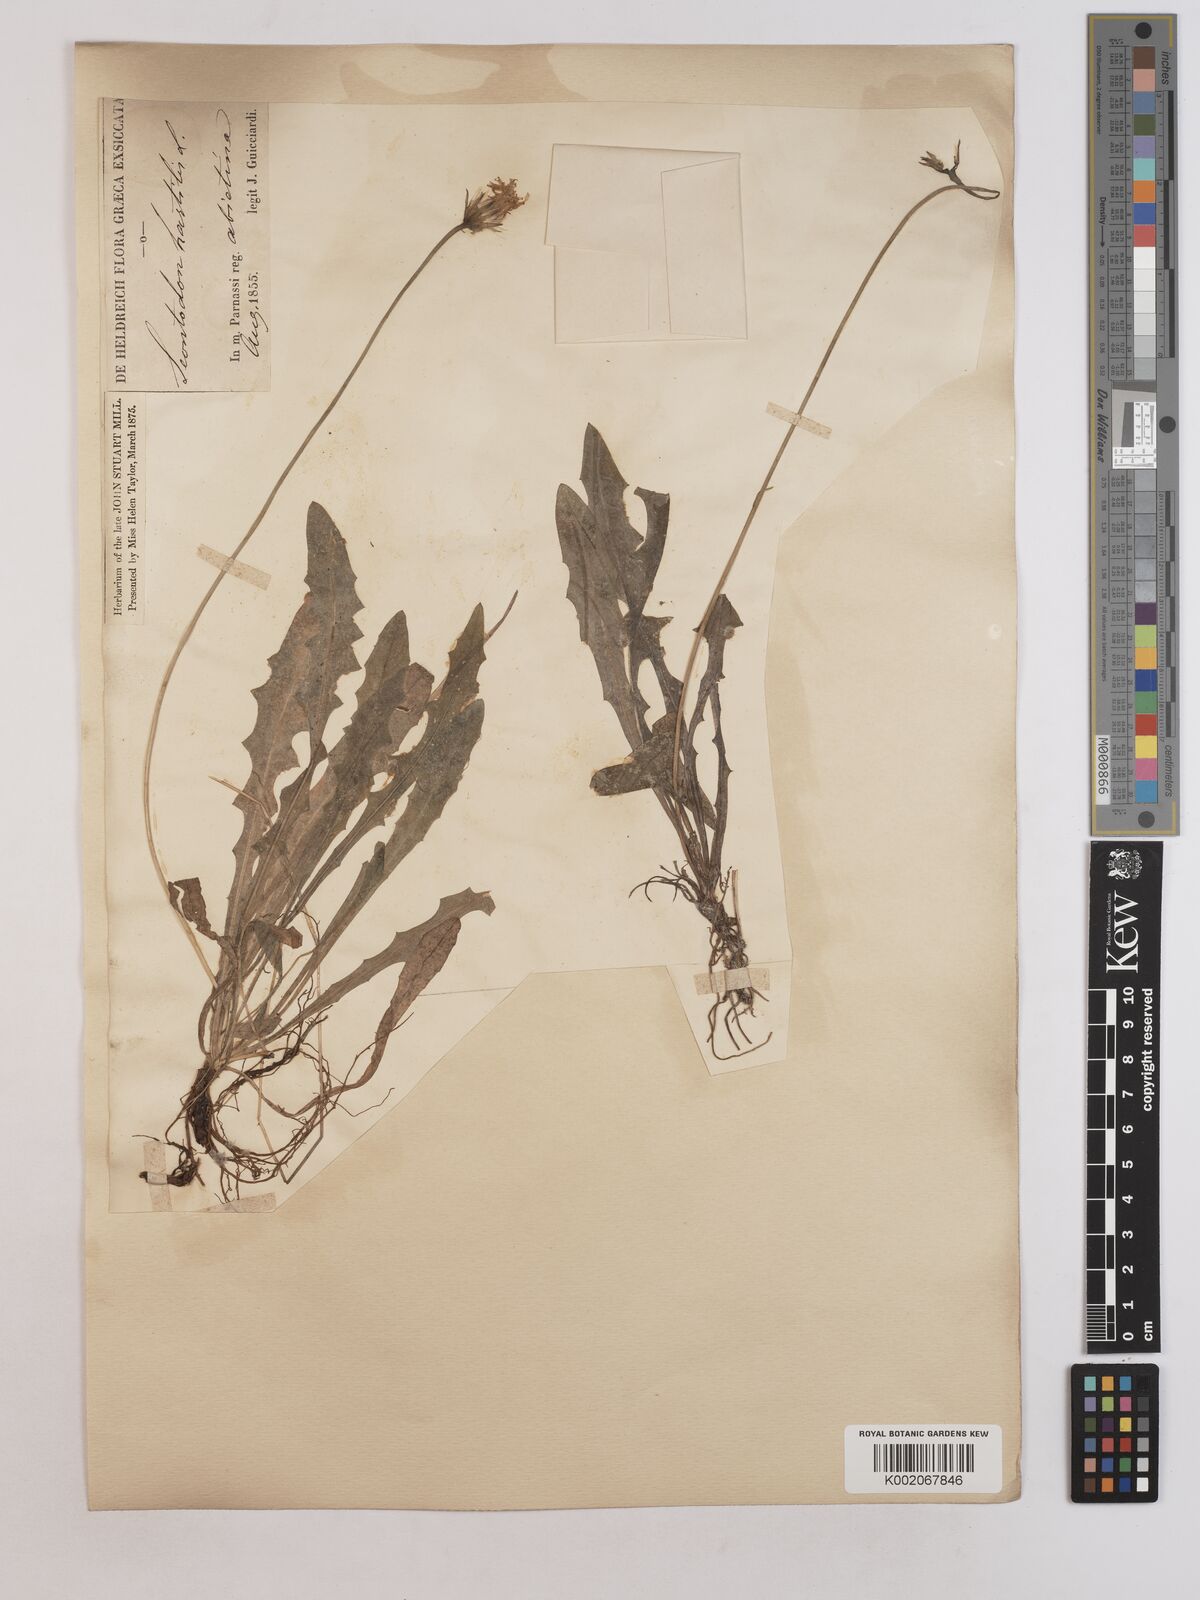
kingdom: Plantae
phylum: Tracheophyta
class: Magnoliopsida
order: Asterales
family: Asteraceae
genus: Leontodon
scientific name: Leontodon hispidus
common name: Rough hawkbit
